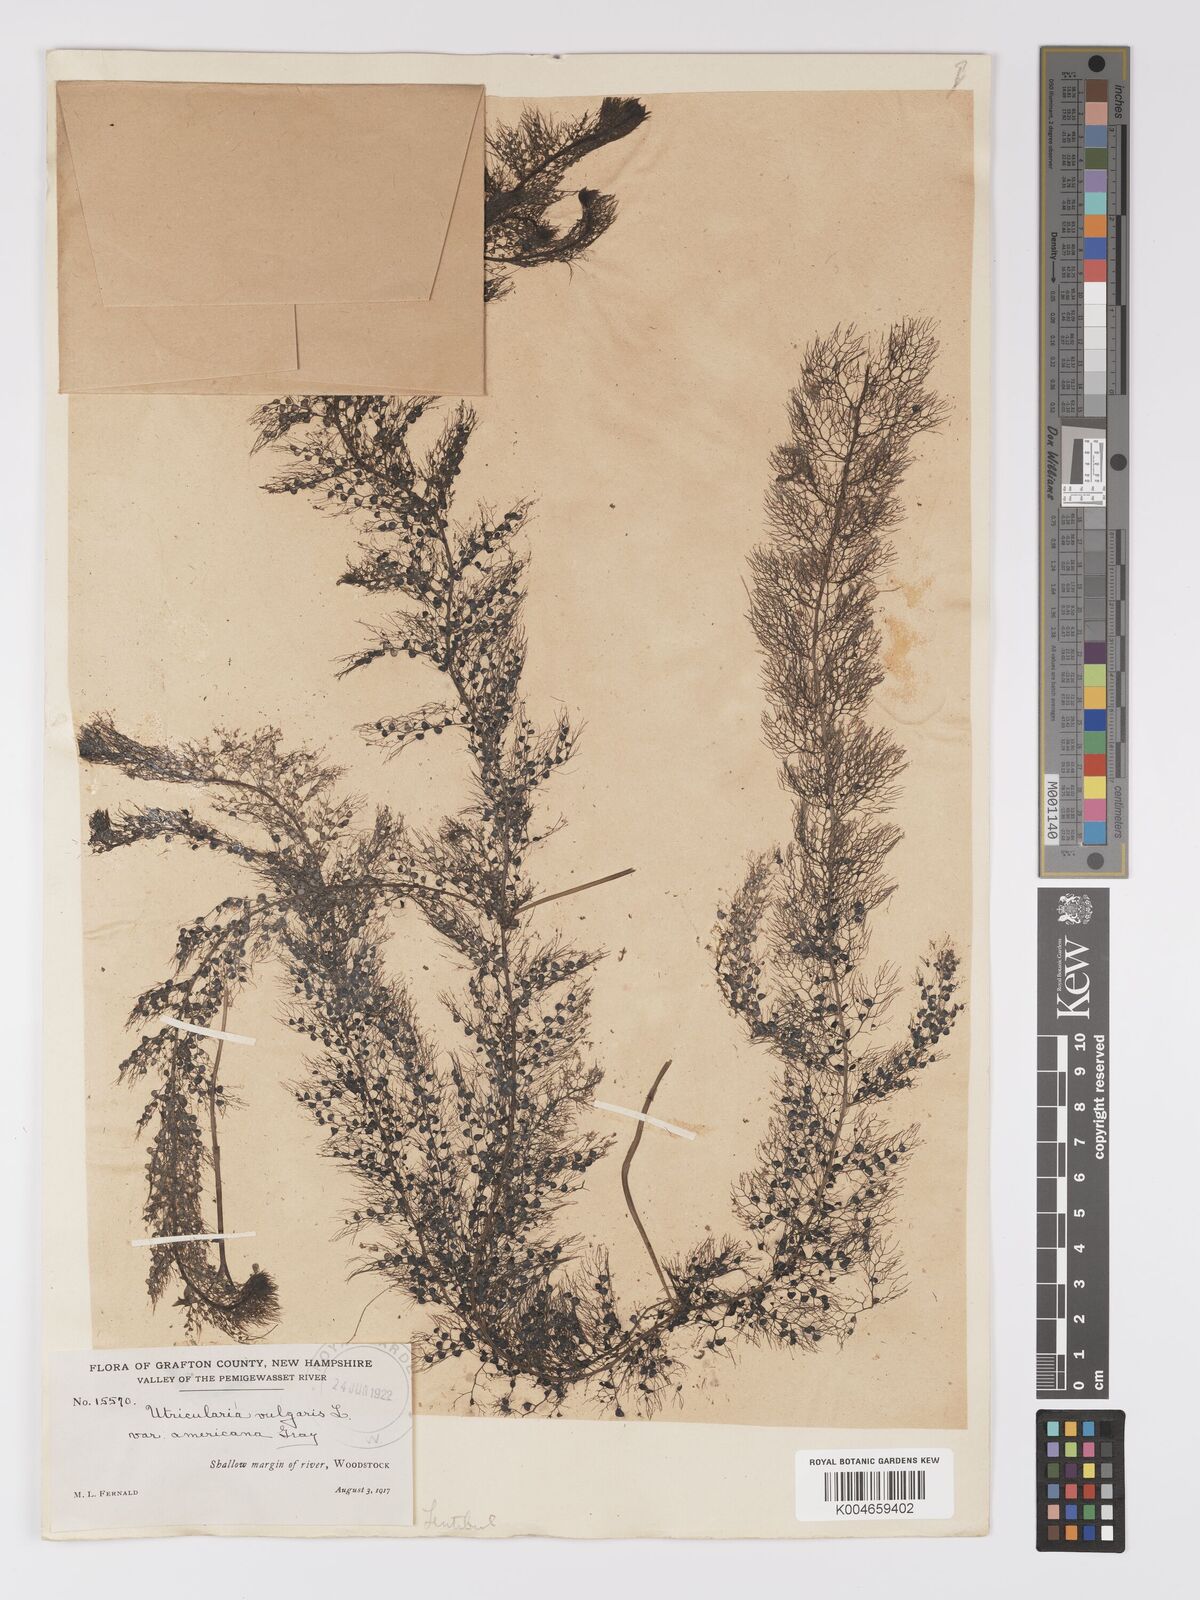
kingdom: Plantae
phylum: Tracheophyta
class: Magnoliopsida
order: Lamiales
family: Lentibulariaceae
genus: Utricularia
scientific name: Utricularia macrorhiza
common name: Common bladderwort
